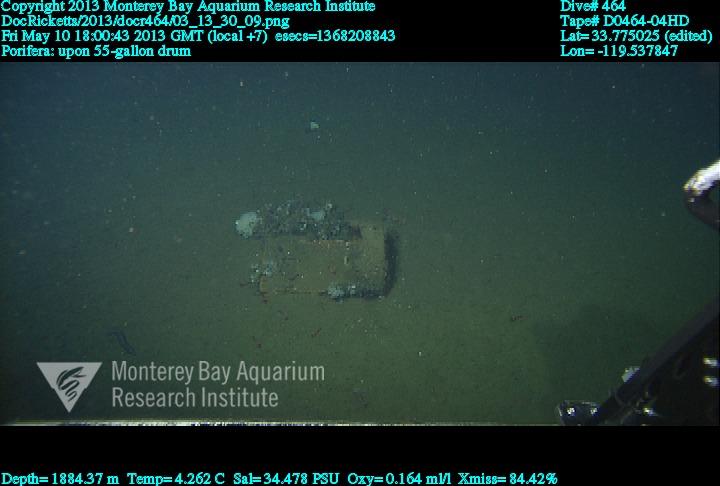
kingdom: Animalia
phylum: Porifera
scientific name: Porifera
